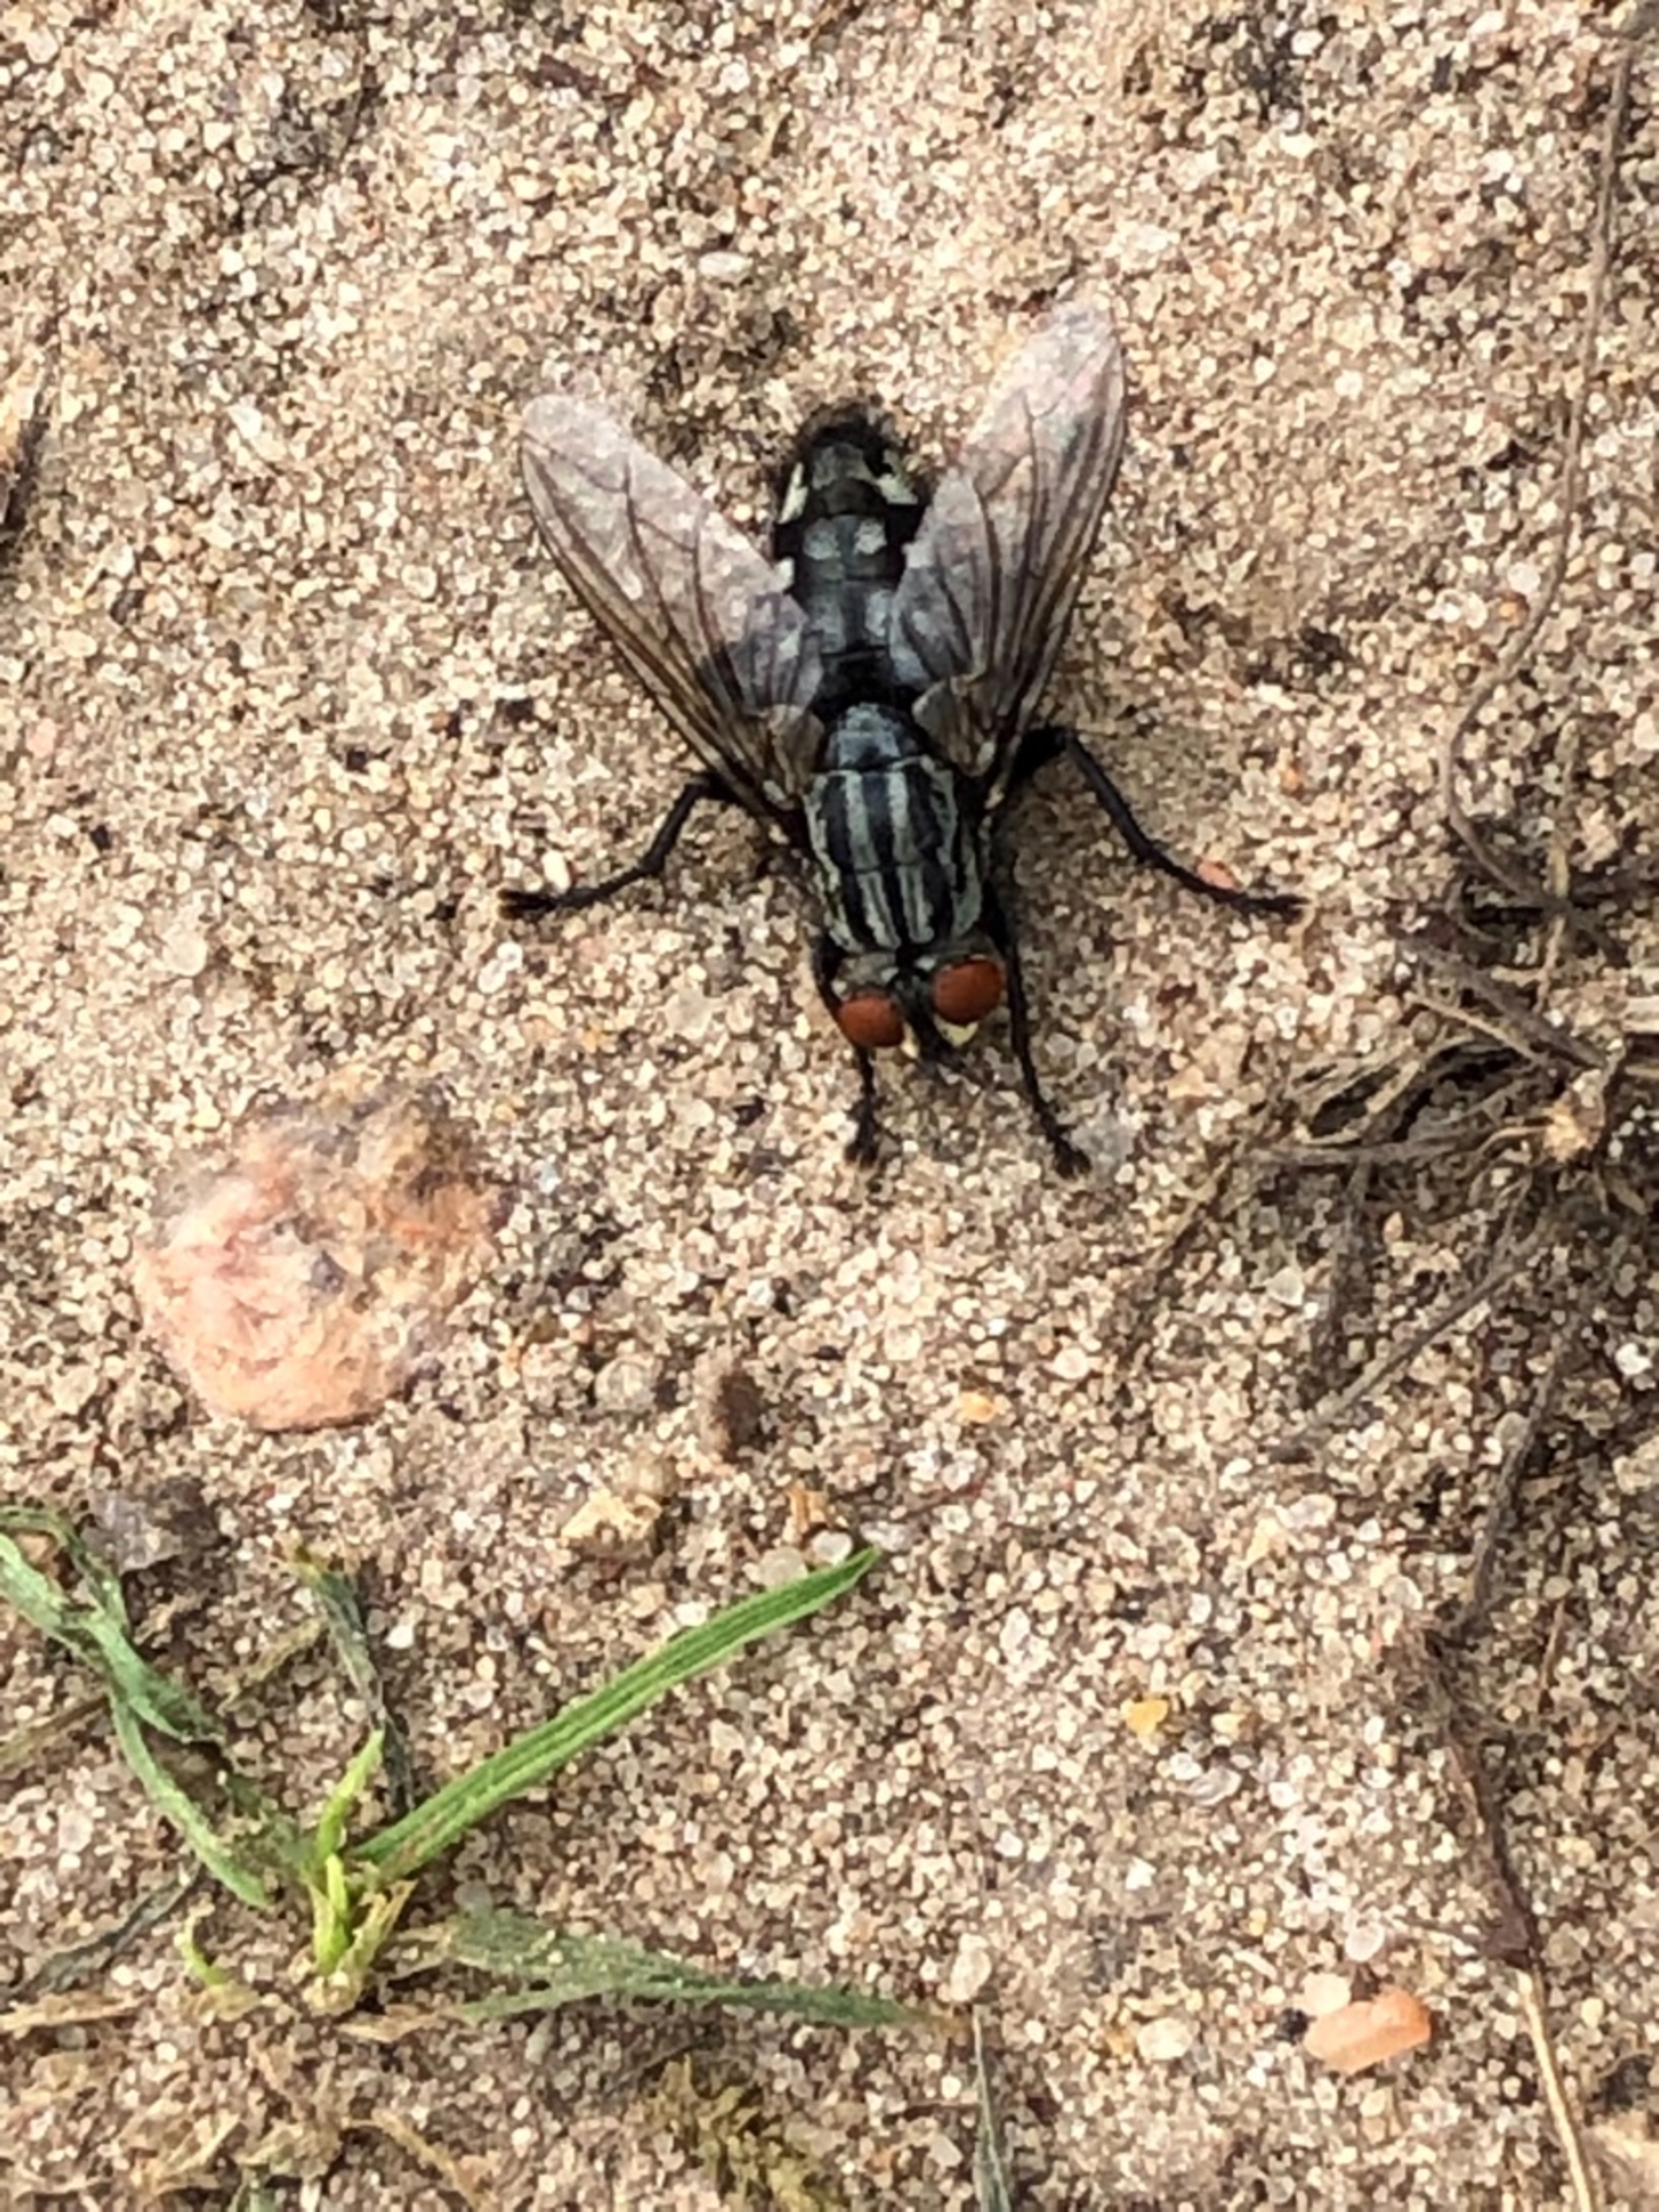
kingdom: Animalia
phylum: Arthropoda
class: Insecta
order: Diptera
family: Sarcophagidae
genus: Sarcophaga
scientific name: Sarcophaga
